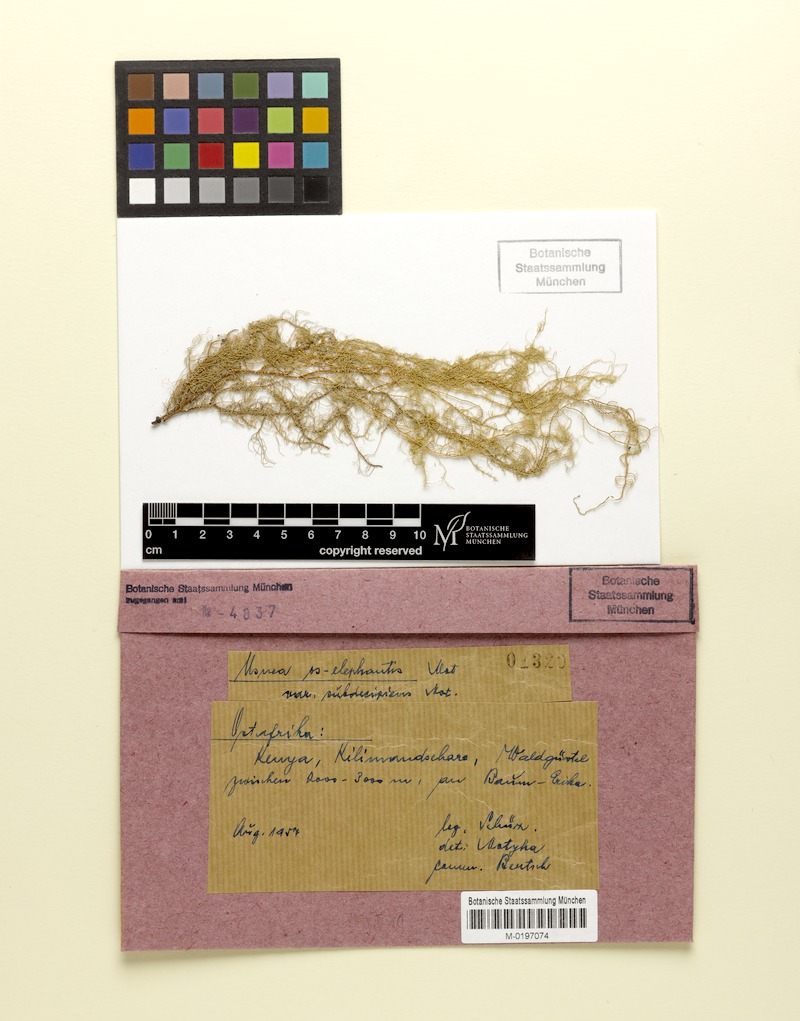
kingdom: Fungi
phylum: Ascomycota
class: Lecanoromycetes
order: Lecanorales
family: Parmeliaceae
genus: Usnea
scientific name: Usnea os-elephantis
